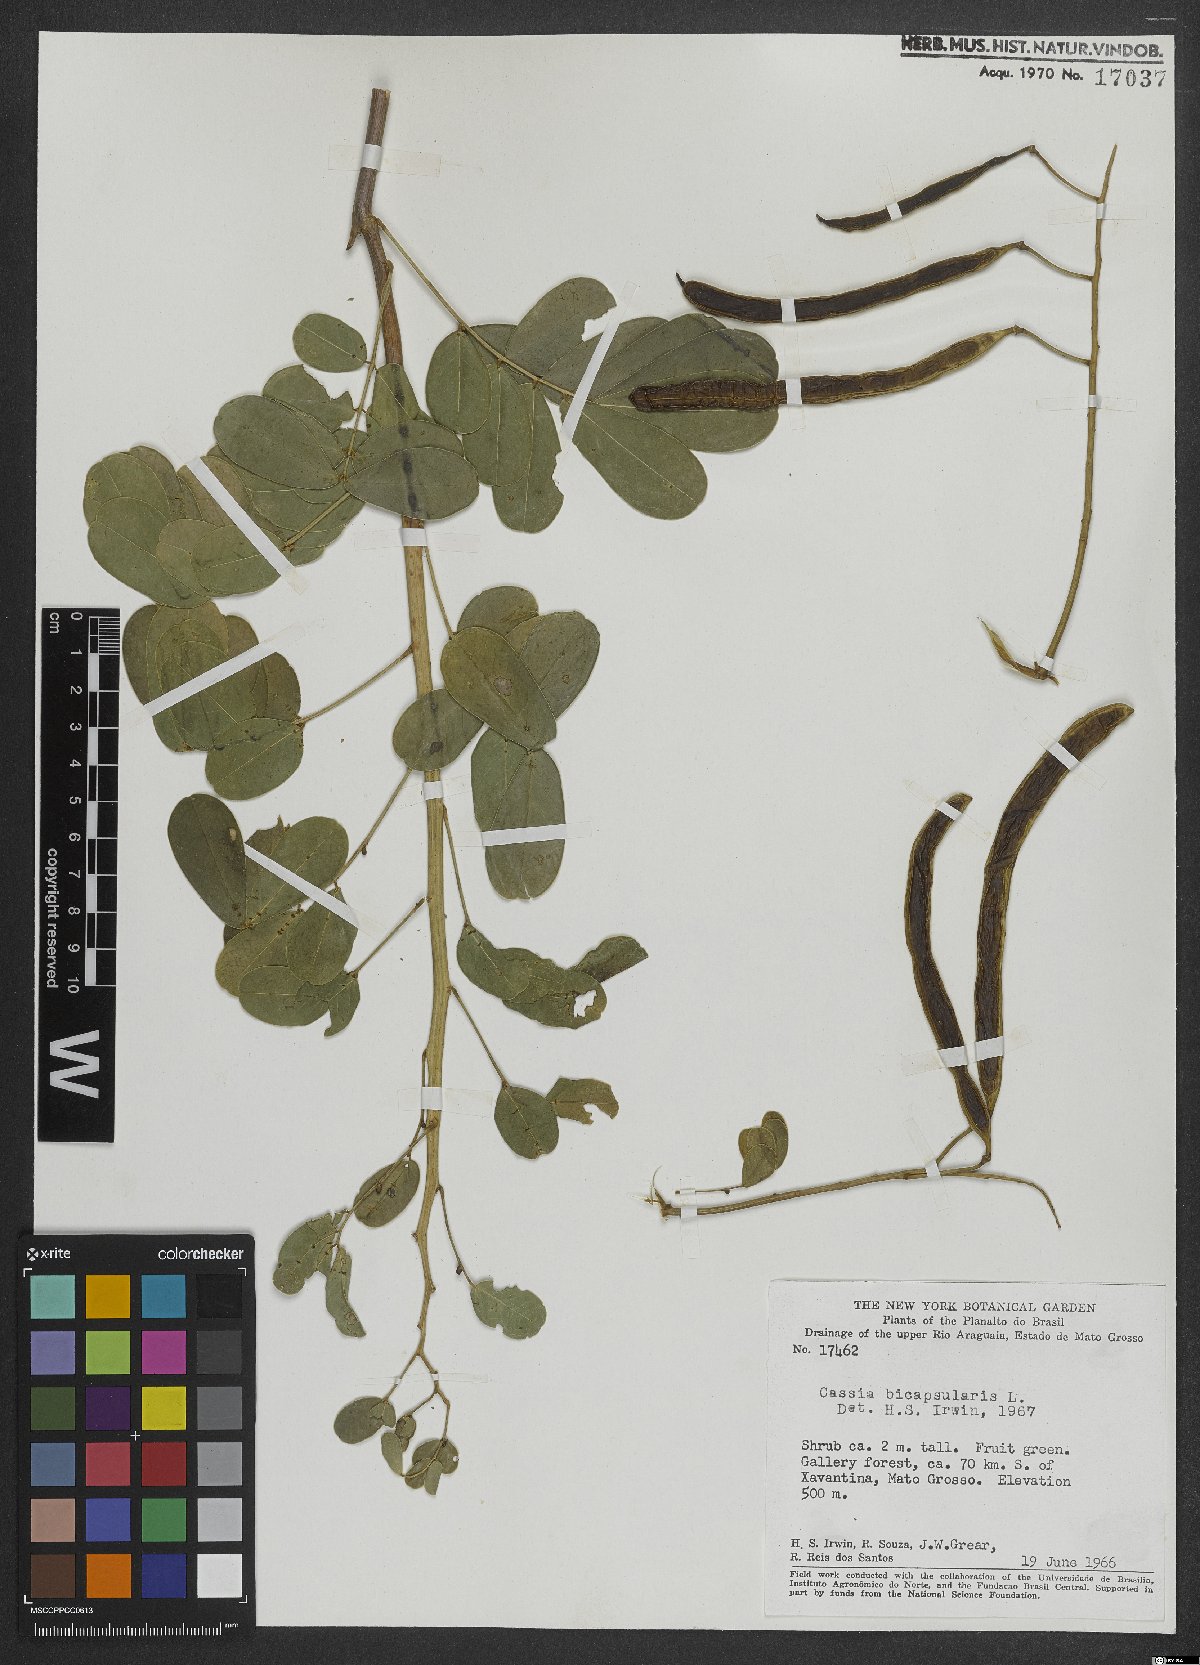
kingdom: Plantae
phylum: Tracheophyta
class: Magnoliopsida
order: Fabales
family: Fabaceae
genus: Senna
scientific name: Senna bicapsularis
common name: Christmasbush
